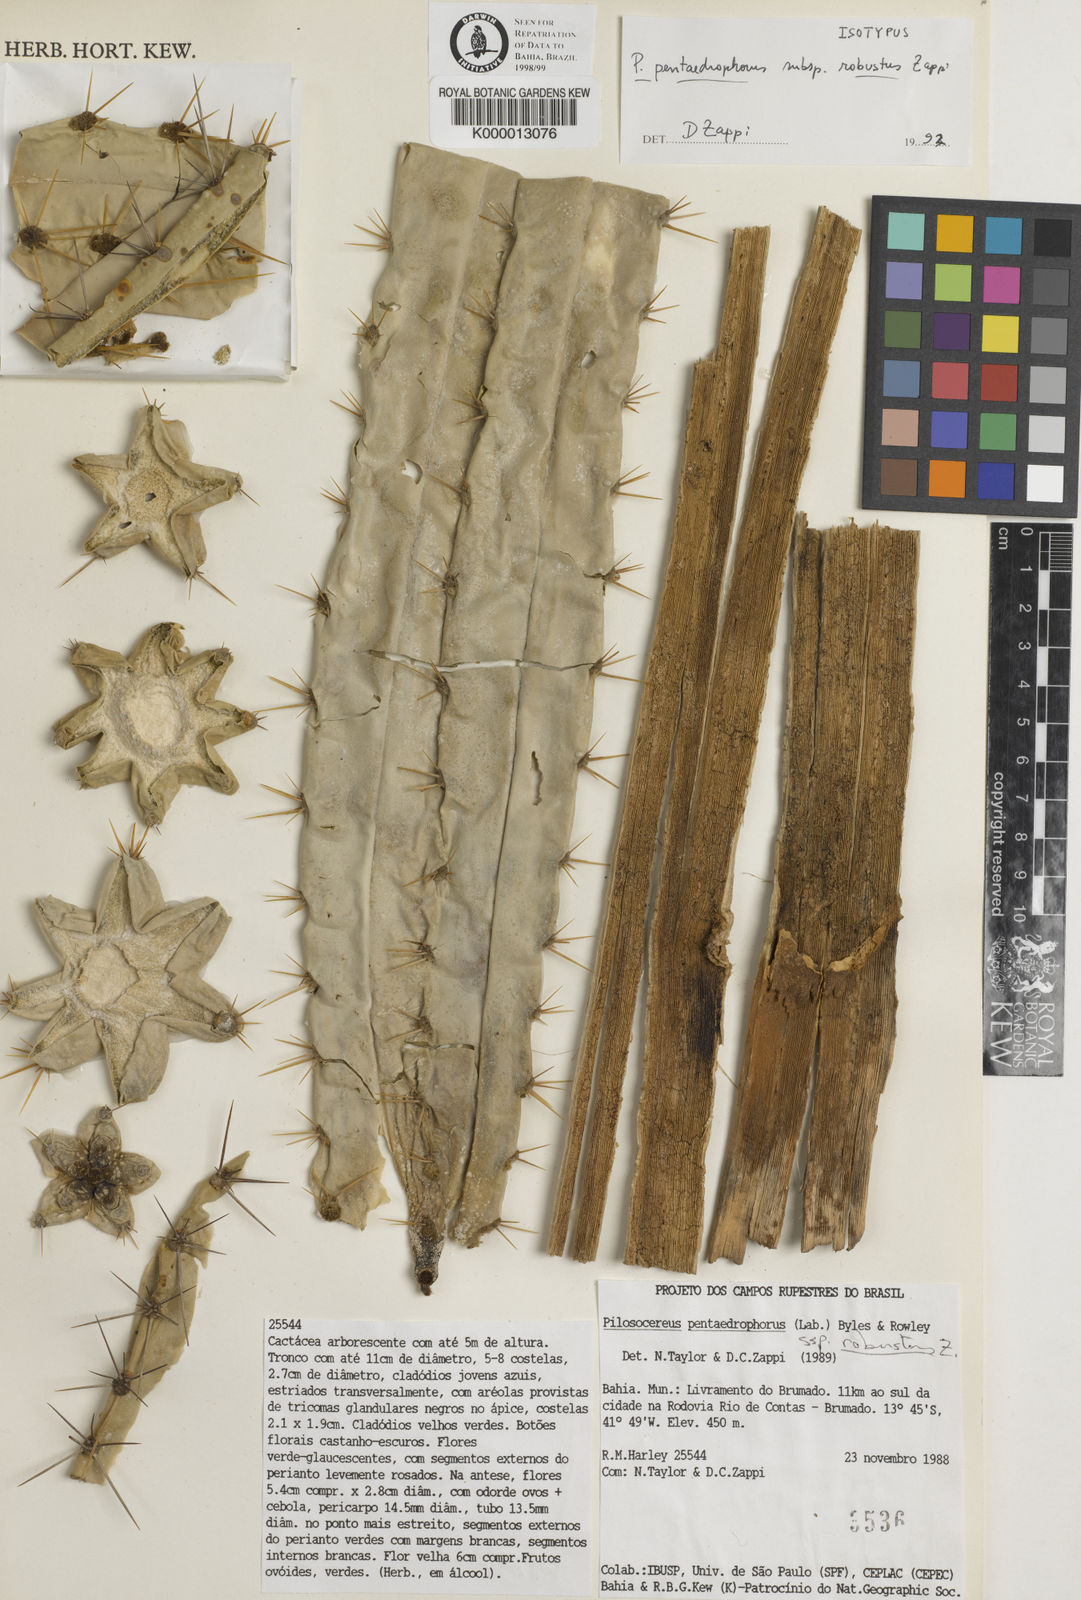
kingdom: Plantae
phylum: Tracheophyta
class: Magnoliopsida
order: Caryophyllales
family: Cactaceae
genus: Pilosocereus
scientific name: Pilosocereus pentaedrophorus
